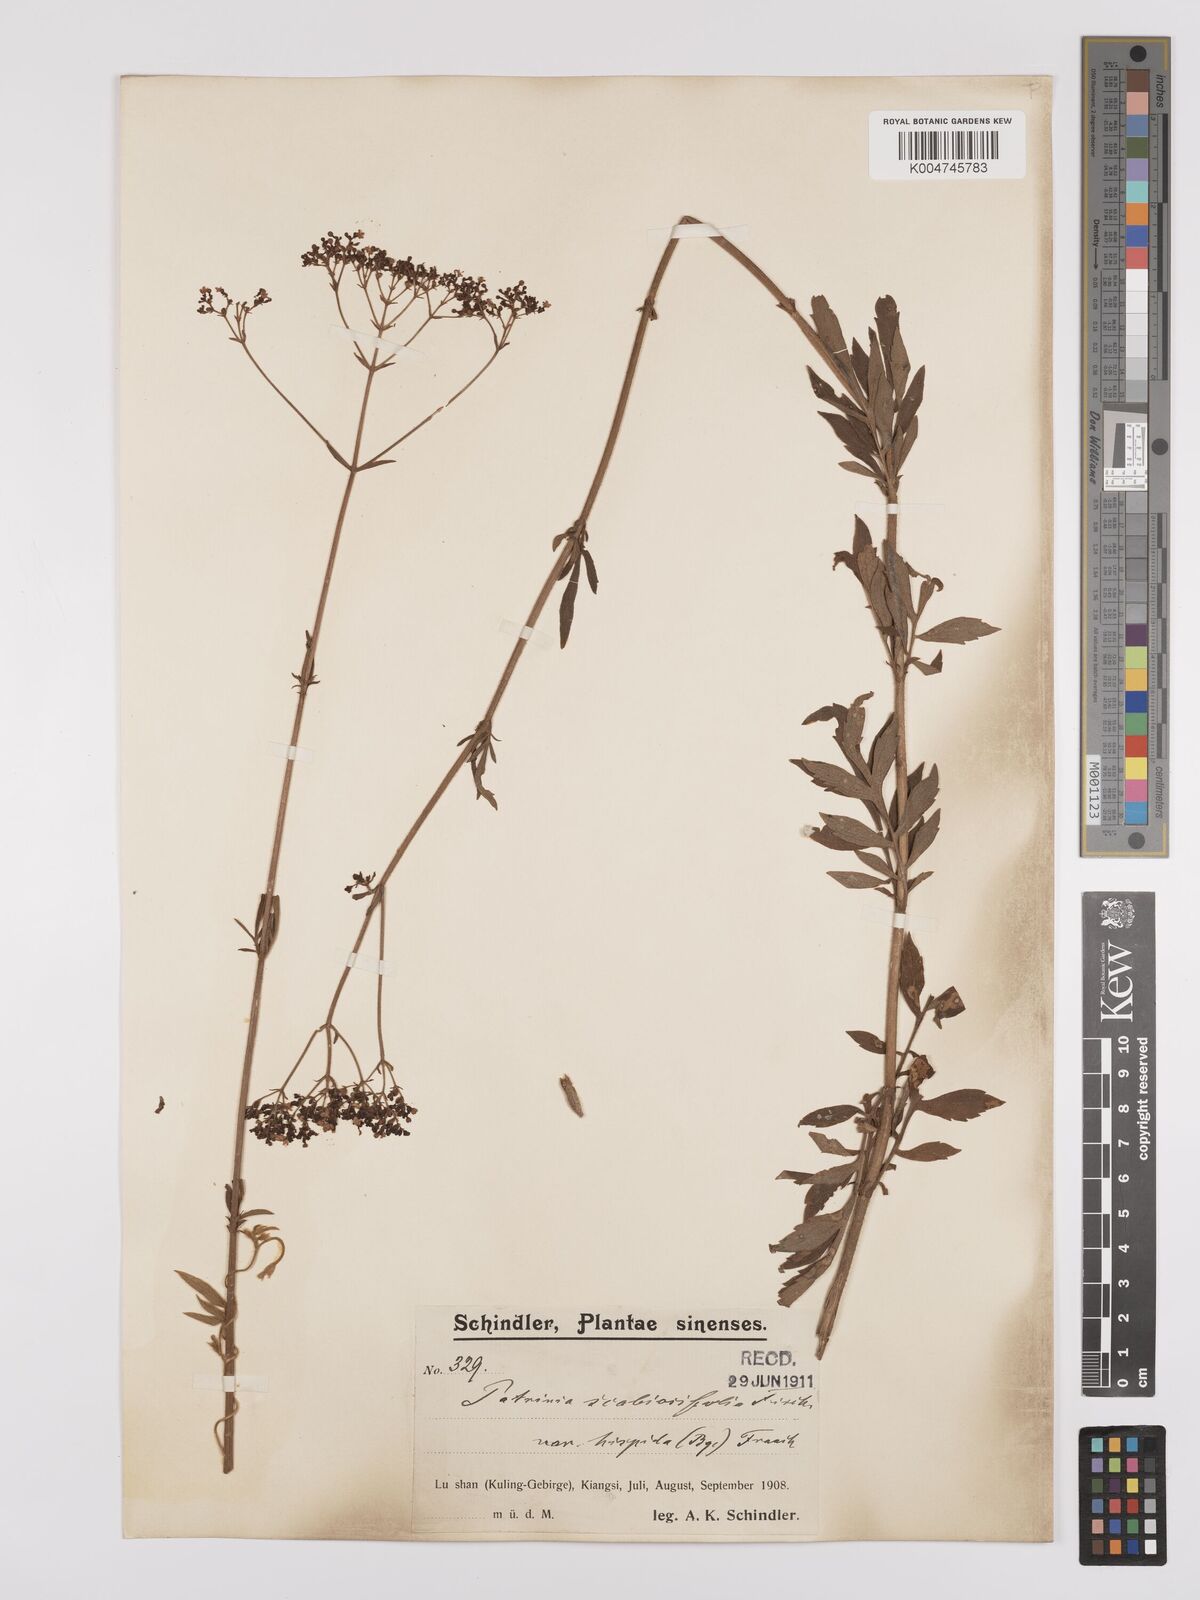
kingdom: Plantae
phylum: Tracheophyta
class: Magnoliopsida
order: Dipsacales
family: Caprifoliaceae
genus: Patrinia
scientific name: Patrinia scabiosifolia
